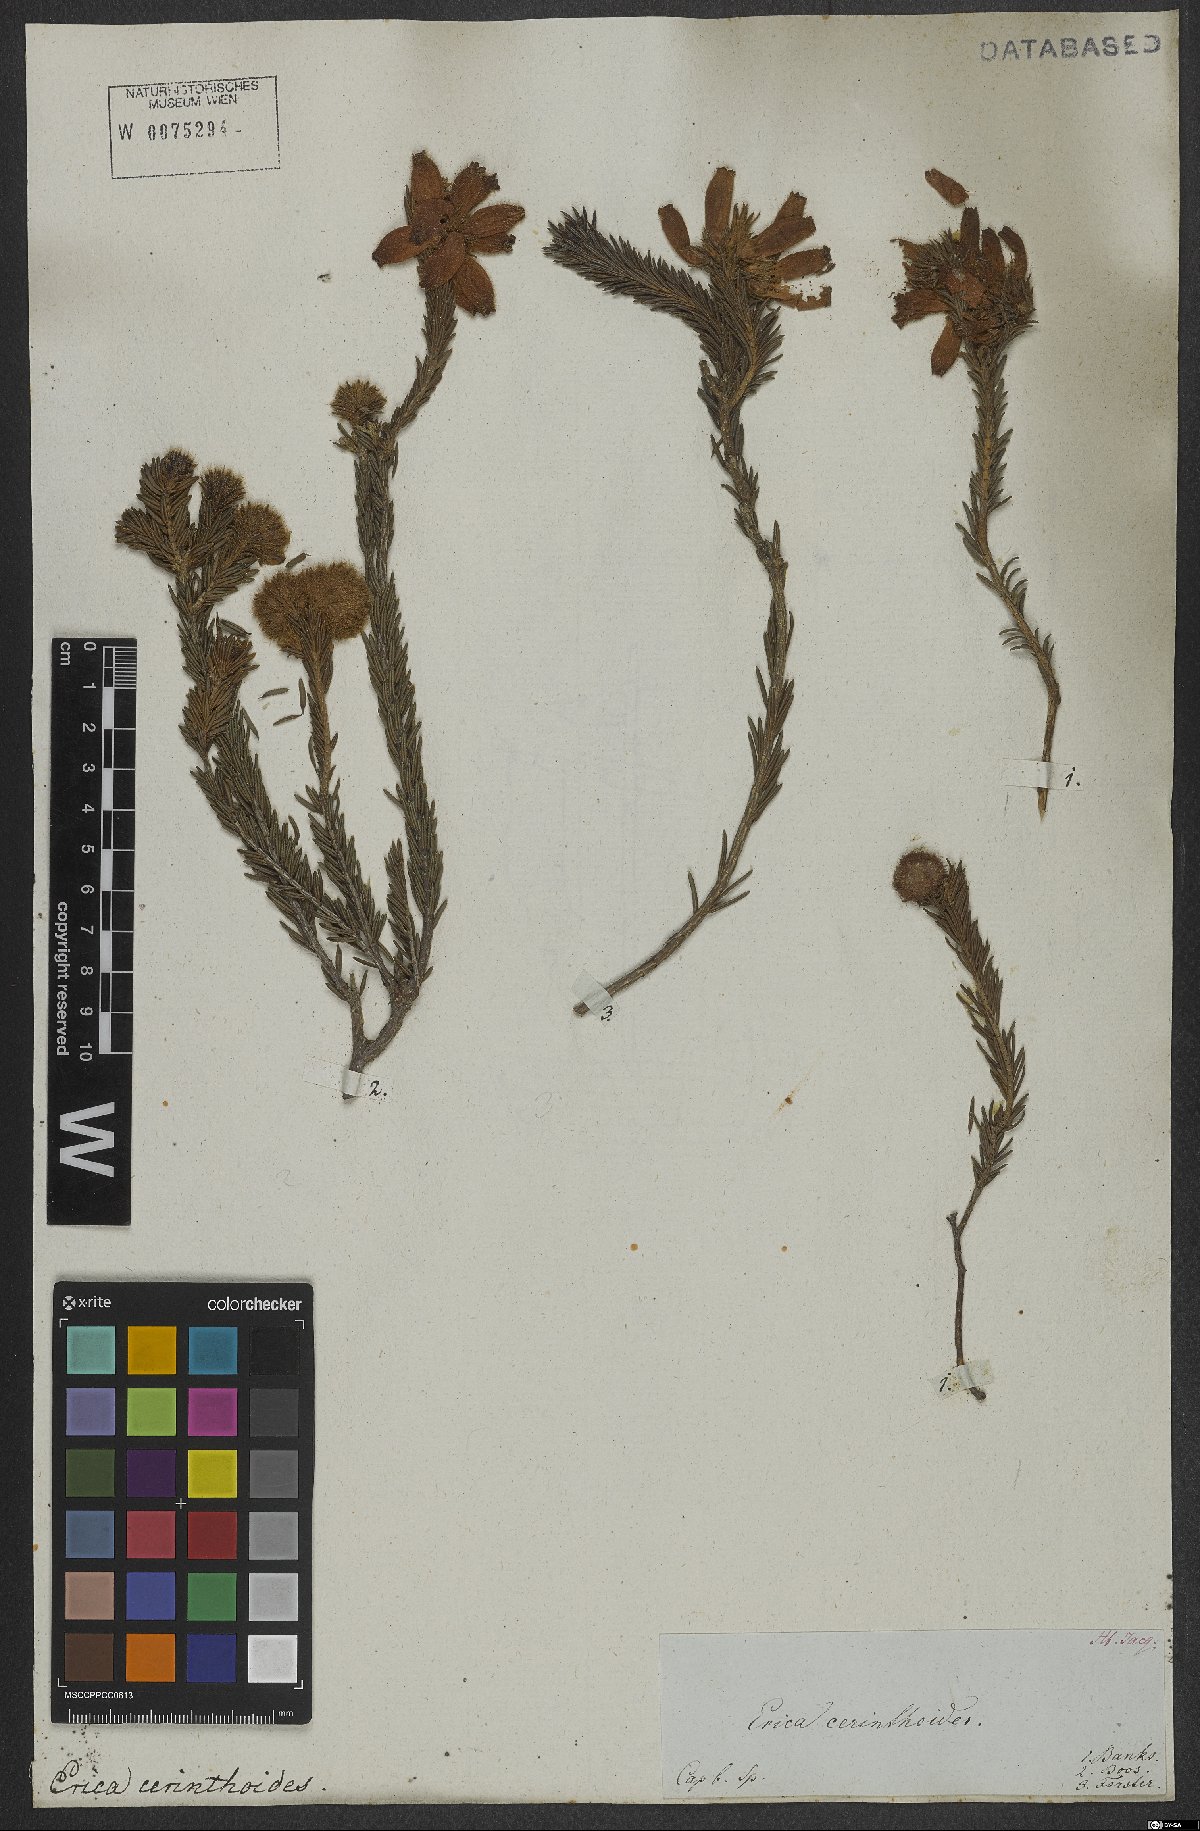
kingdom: Plantae
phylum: Tracheophyta
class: Magnoliopsida
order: Ericales
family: Ericaceae
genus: Erica
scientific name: Erica cerinthoides
